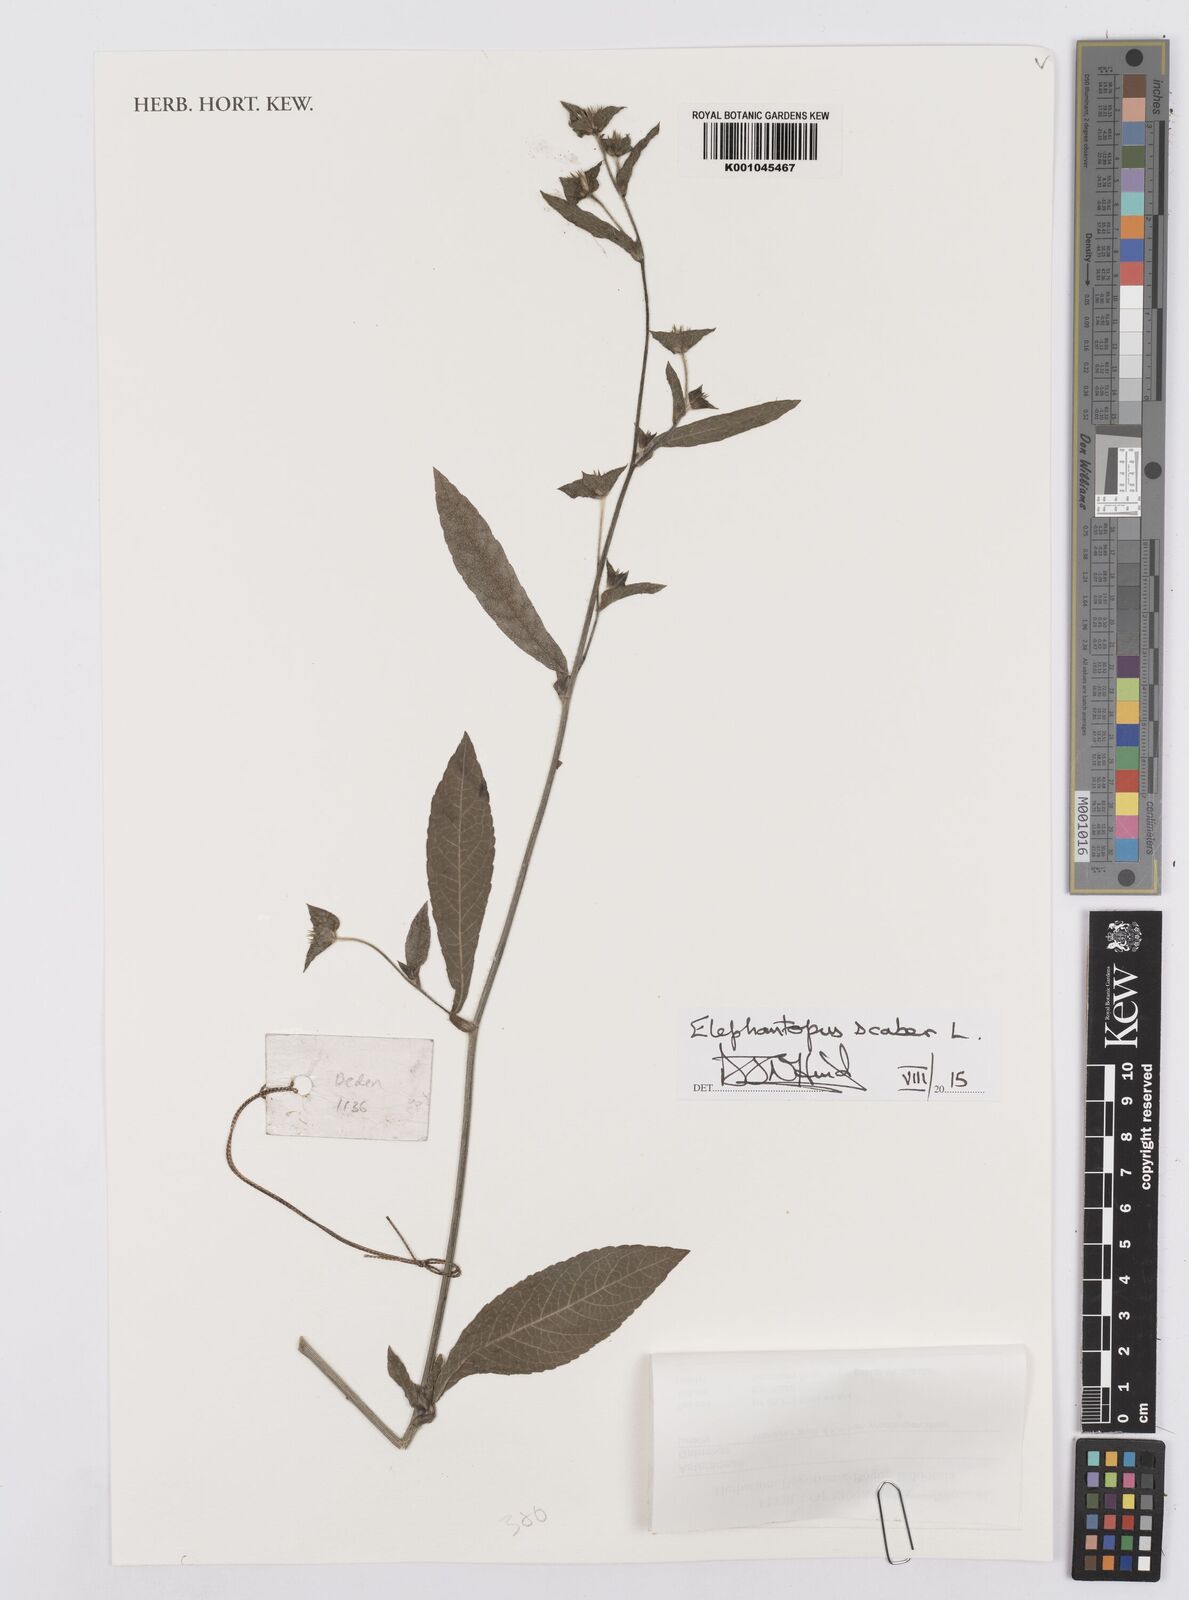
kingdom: Plantae
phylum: Tracheophyta
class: Magnoliopsida
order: Asterales
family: Asteraceae
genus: Elephantopus
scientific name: Elephantopus scaber
